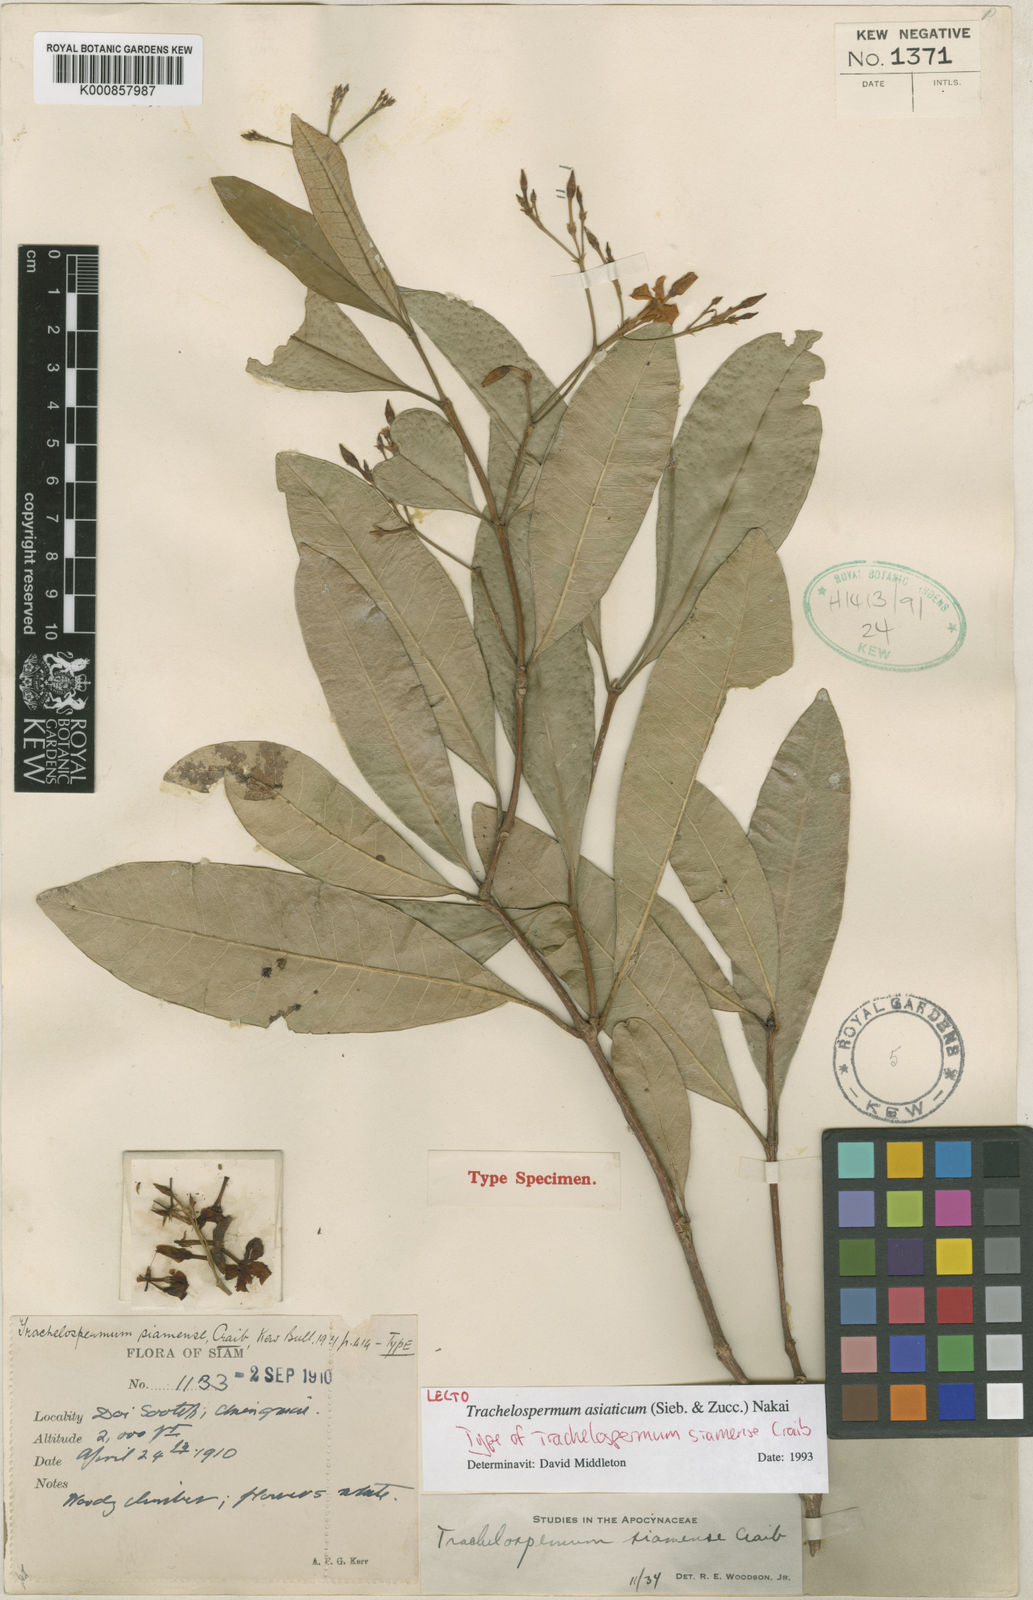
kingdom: Plantae
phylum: Tracheophyta
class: Magnoliopsida
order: Gentianales
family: Apocynaceae
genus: Trachelospermum
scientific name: Trachelospermum asiaticum
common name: Asiatic jasmine
